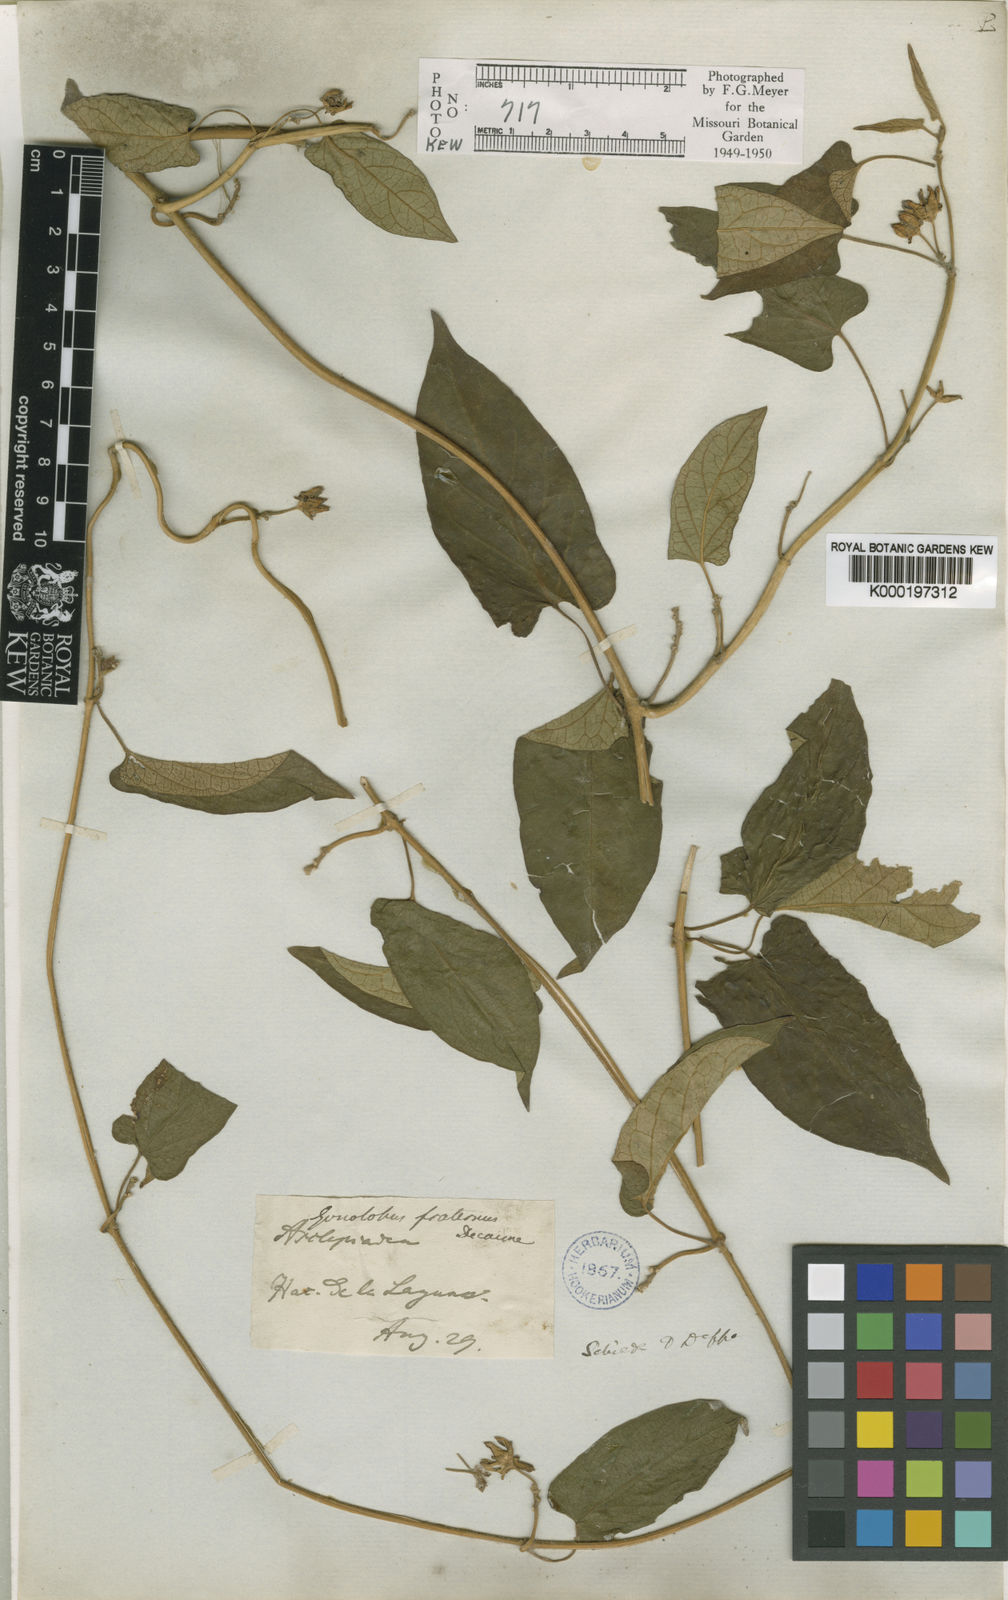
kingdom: Plantae
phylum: Tracheophyta
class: Magnoliopsida
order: Gentianales
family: Apocynaceae
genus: Gonolobus
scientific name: Gonolobus fraternus
